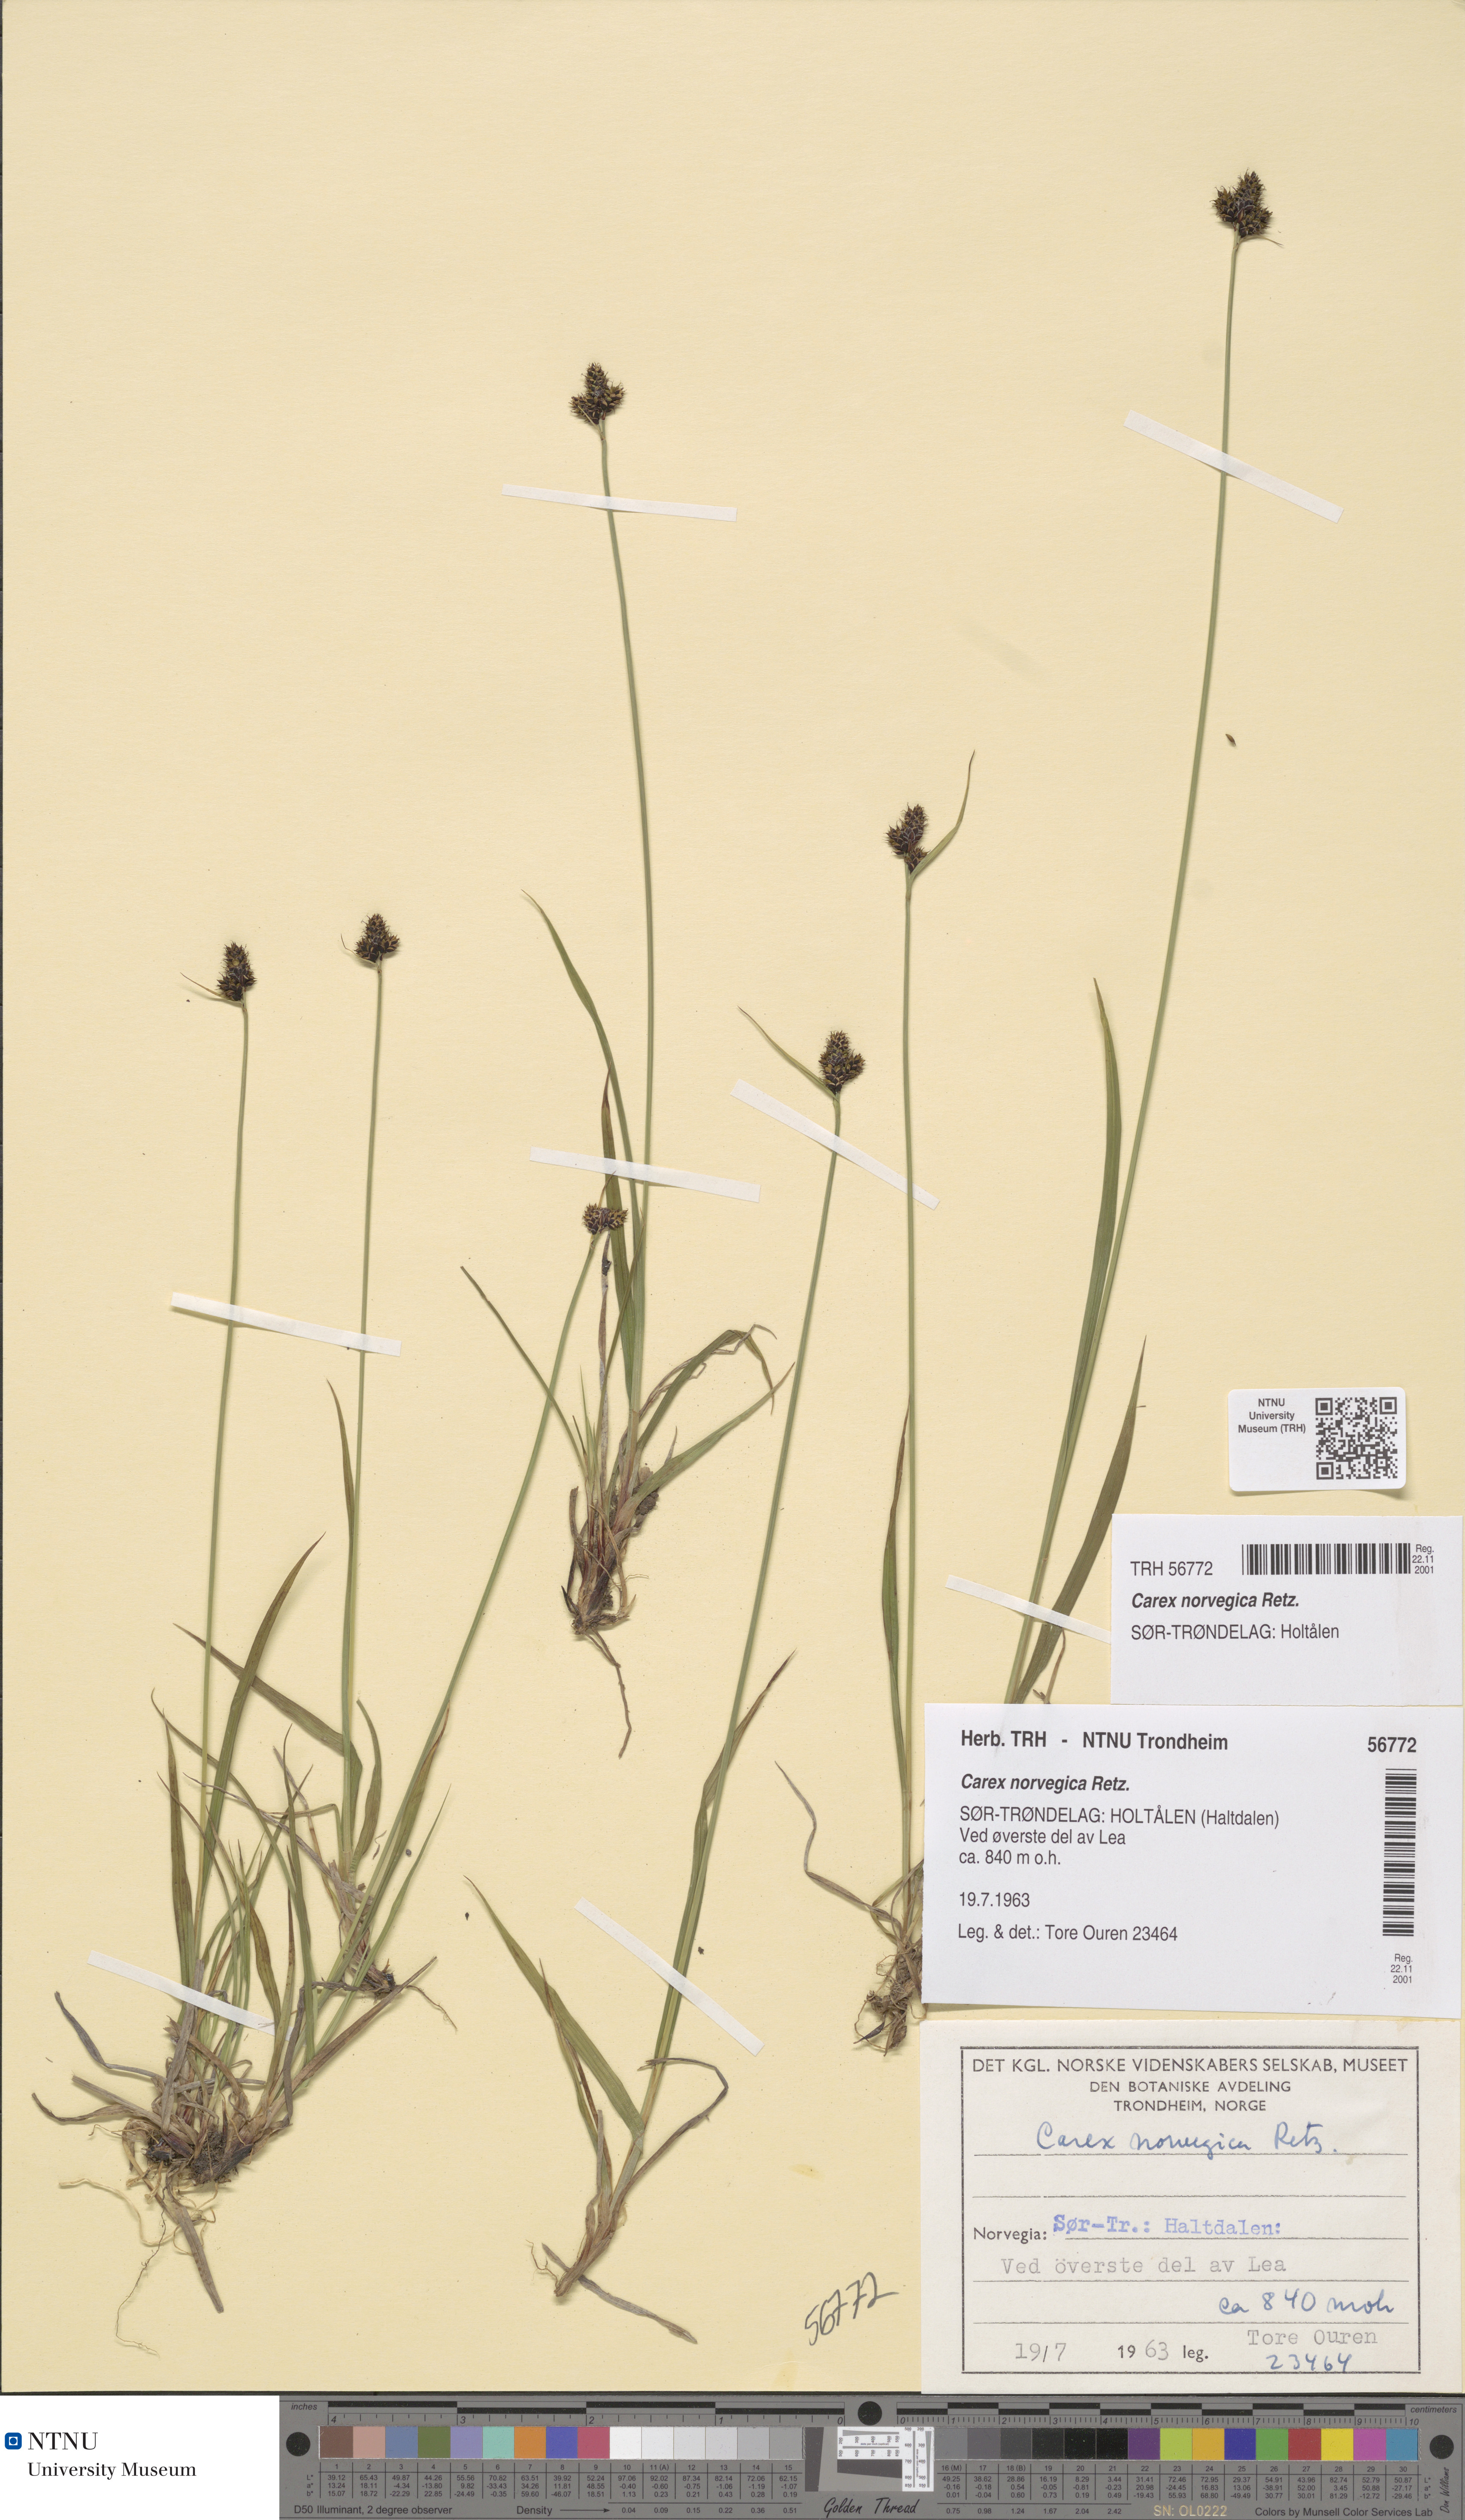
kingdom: Plantae
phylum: Tracheophyta
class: Liliopsida
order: Poales
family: Cyperaceae
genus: Carex
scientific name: Carex norvegica
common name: Close-headed alpine-sedge
